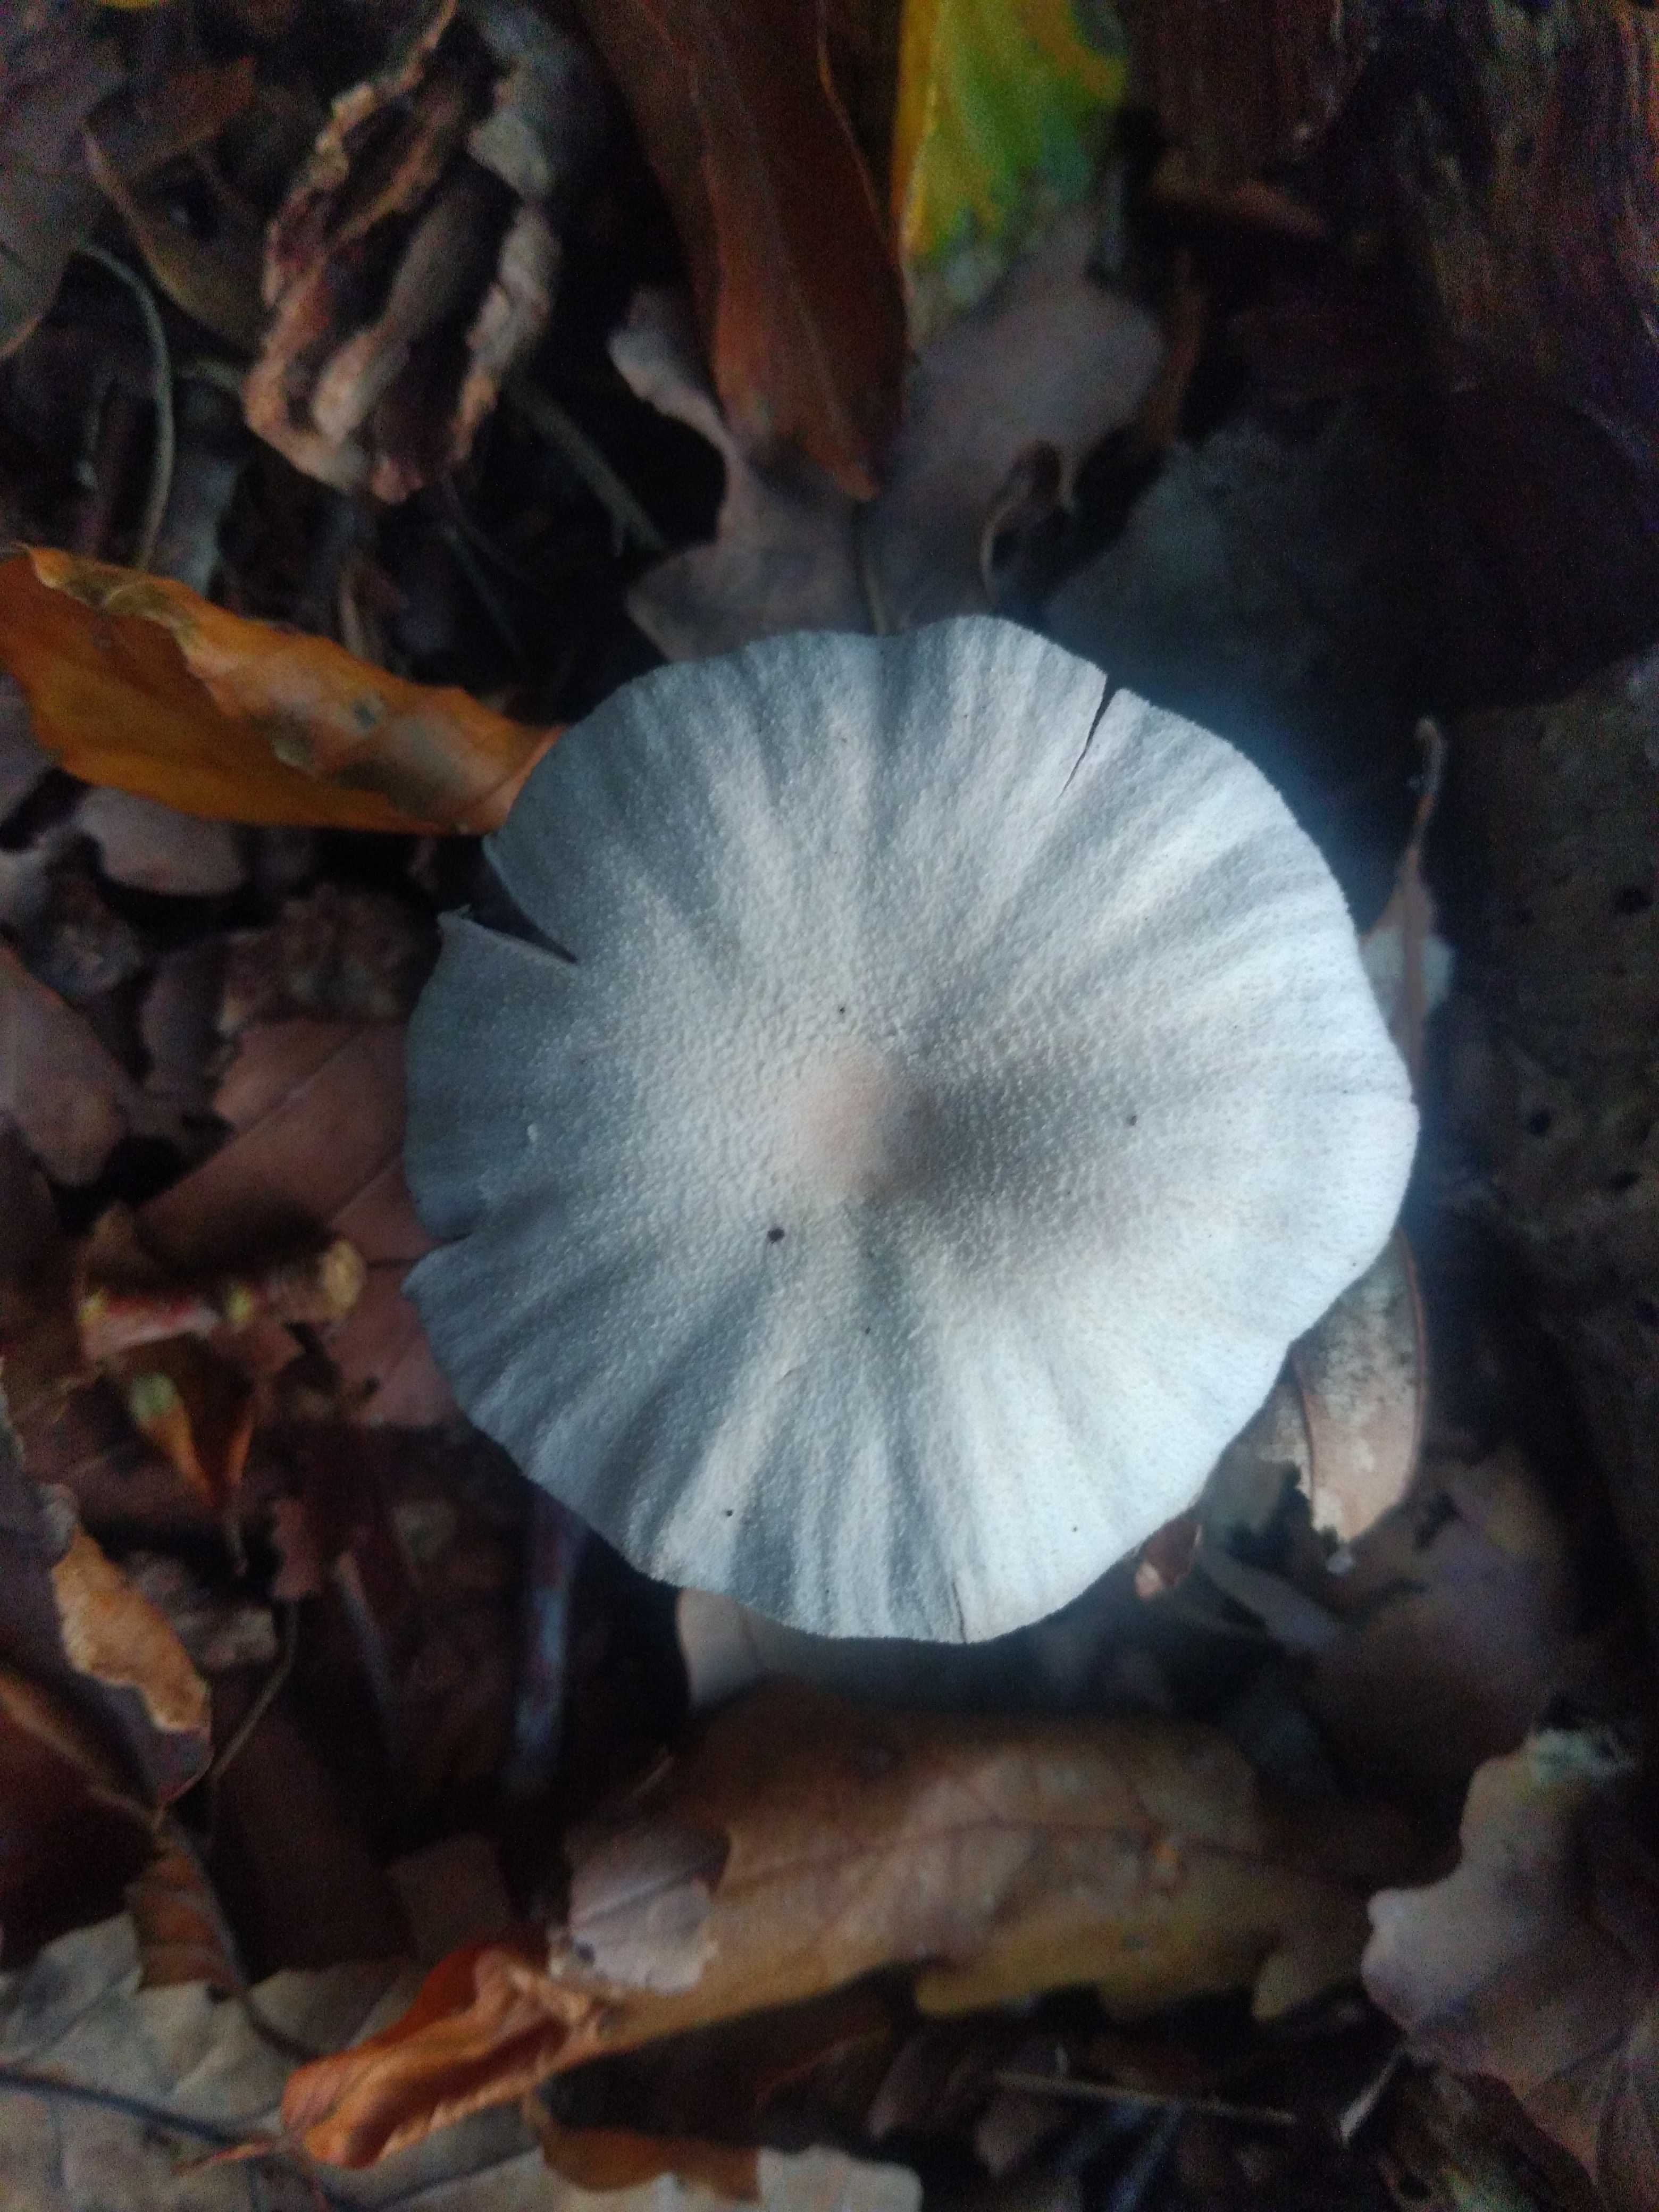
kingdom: Fungi
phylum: Basidiomycota
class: Agaricomycetes
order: Agaricales
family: Hydnangiaceae
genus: Laccaria
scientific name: Laccaria amethystina
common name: violet ametysthat
